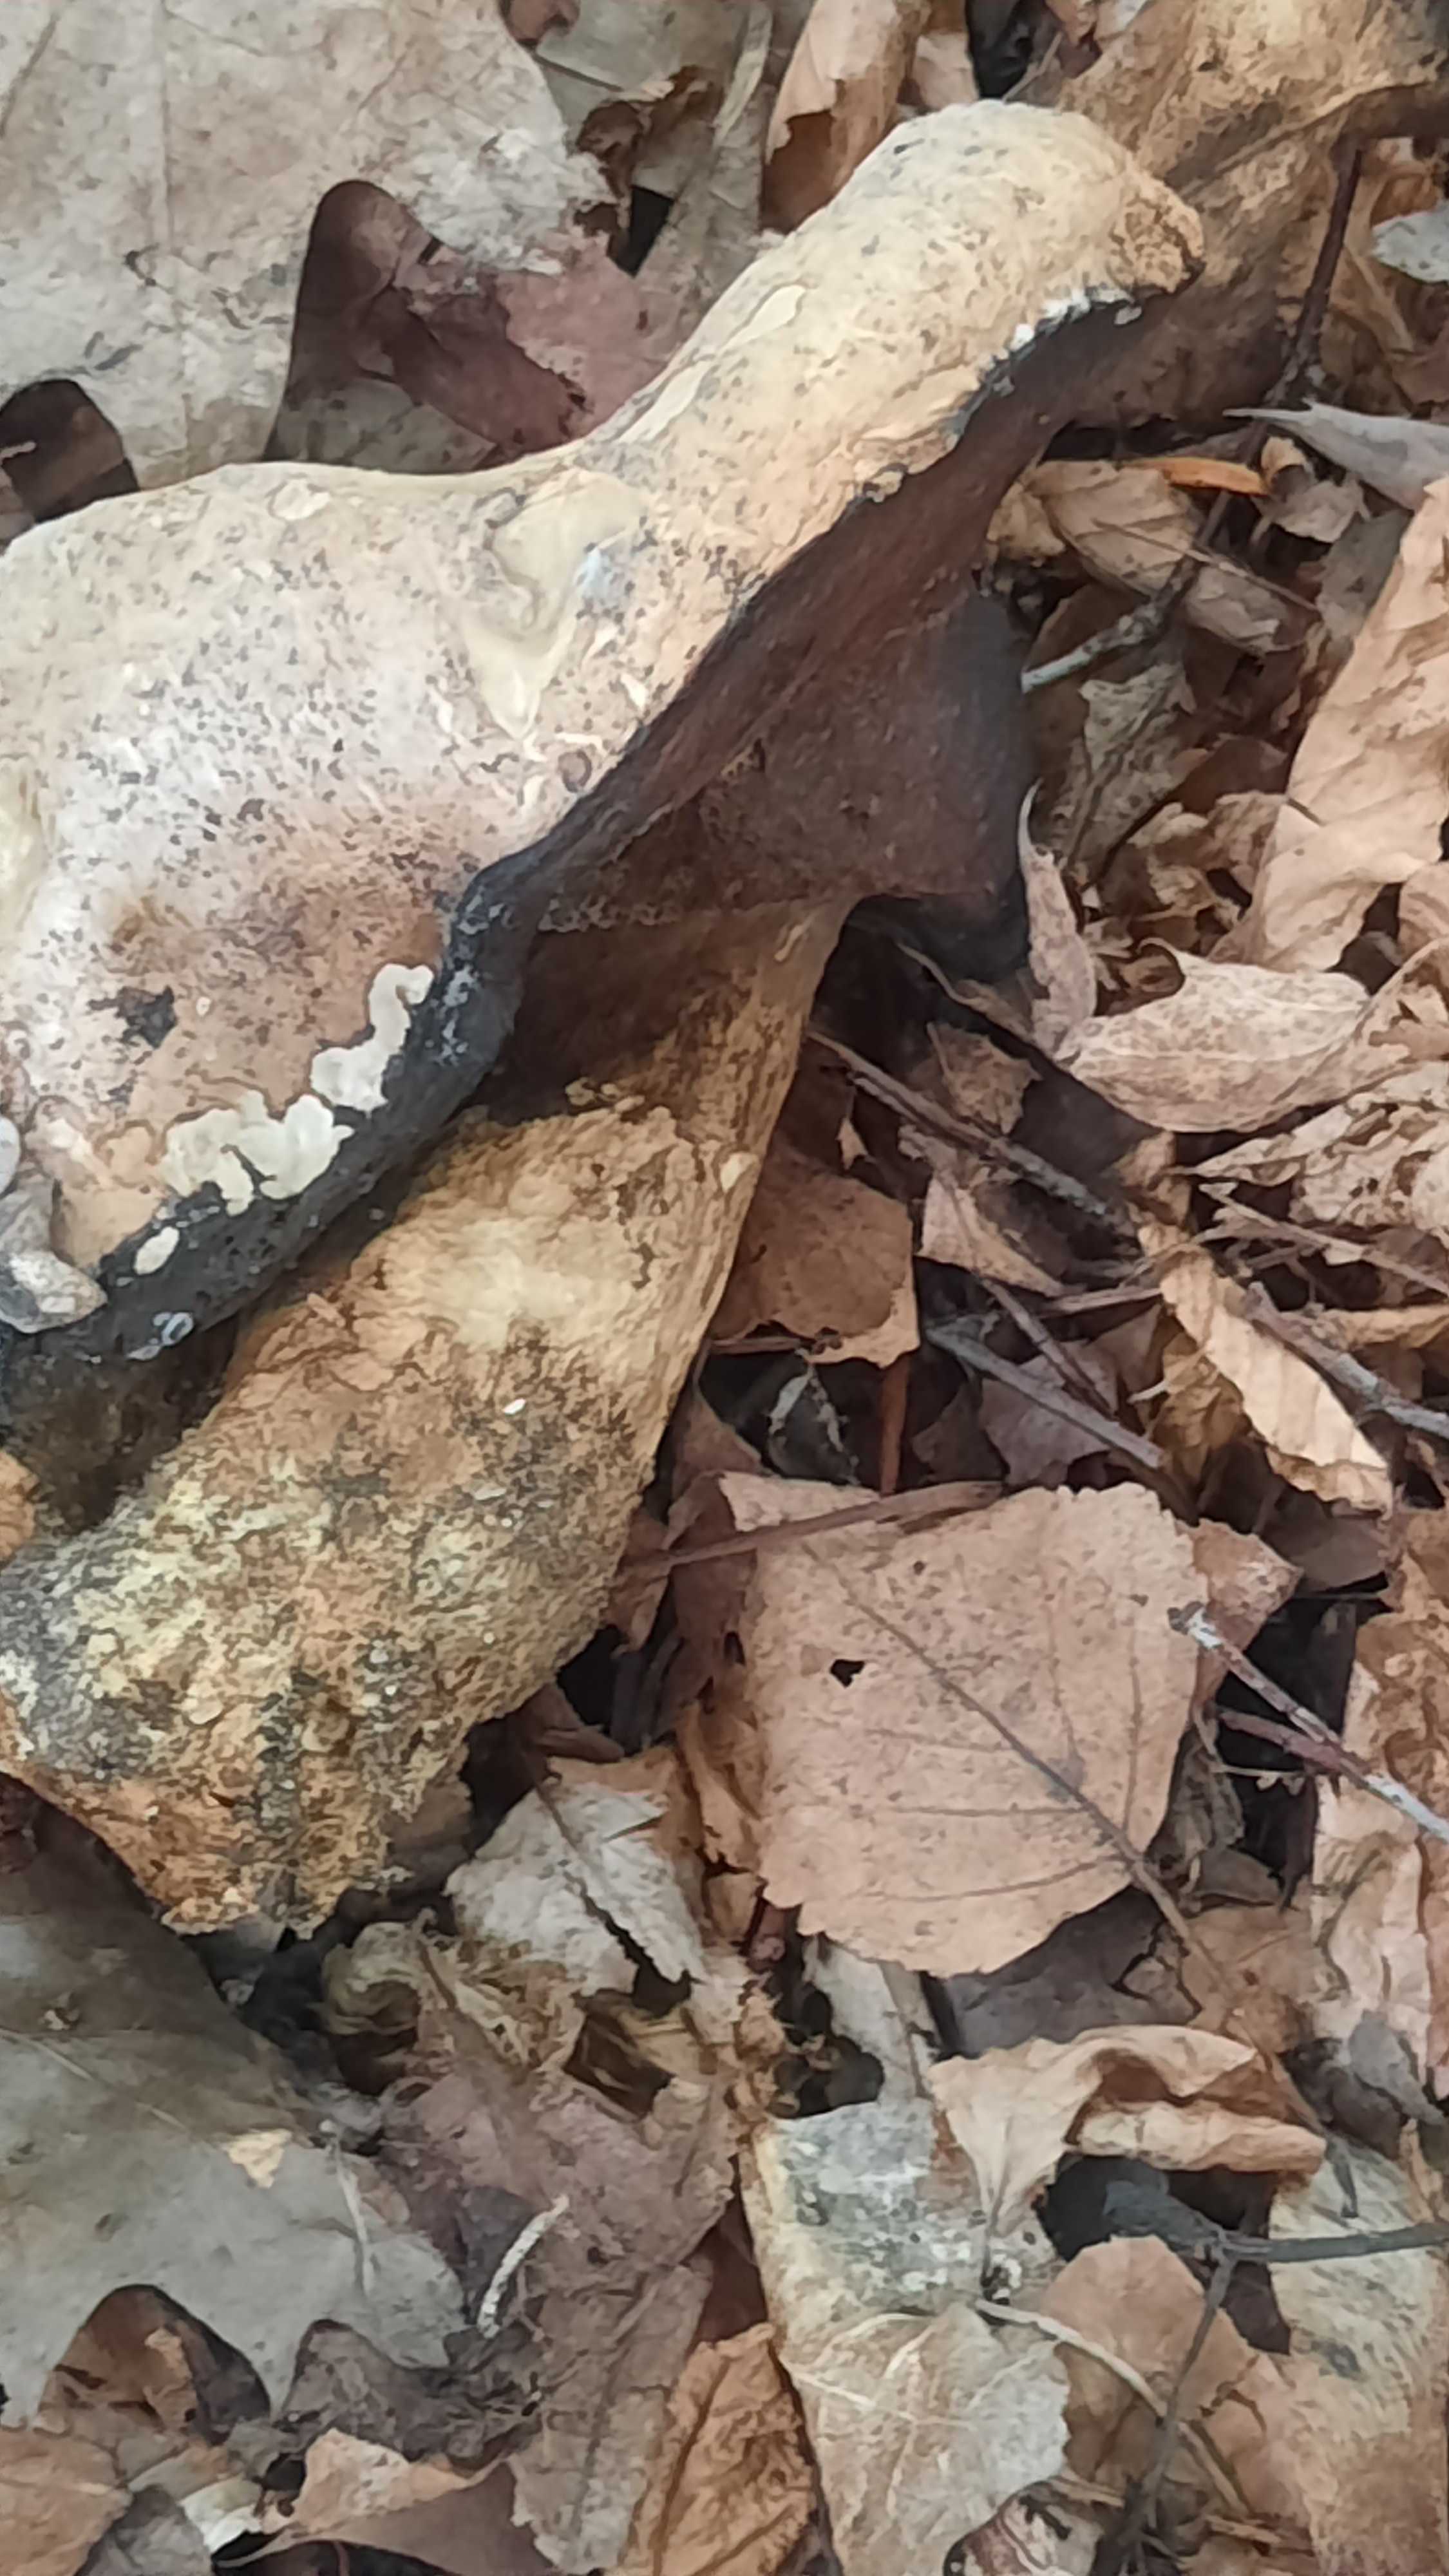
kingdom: Fungi
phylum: Basidiomycota
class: Agaricomycetes
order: Boletales
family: Boletaceae
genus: Caloboletus
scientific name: Caloboletus radicans
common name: rod-rørhat
